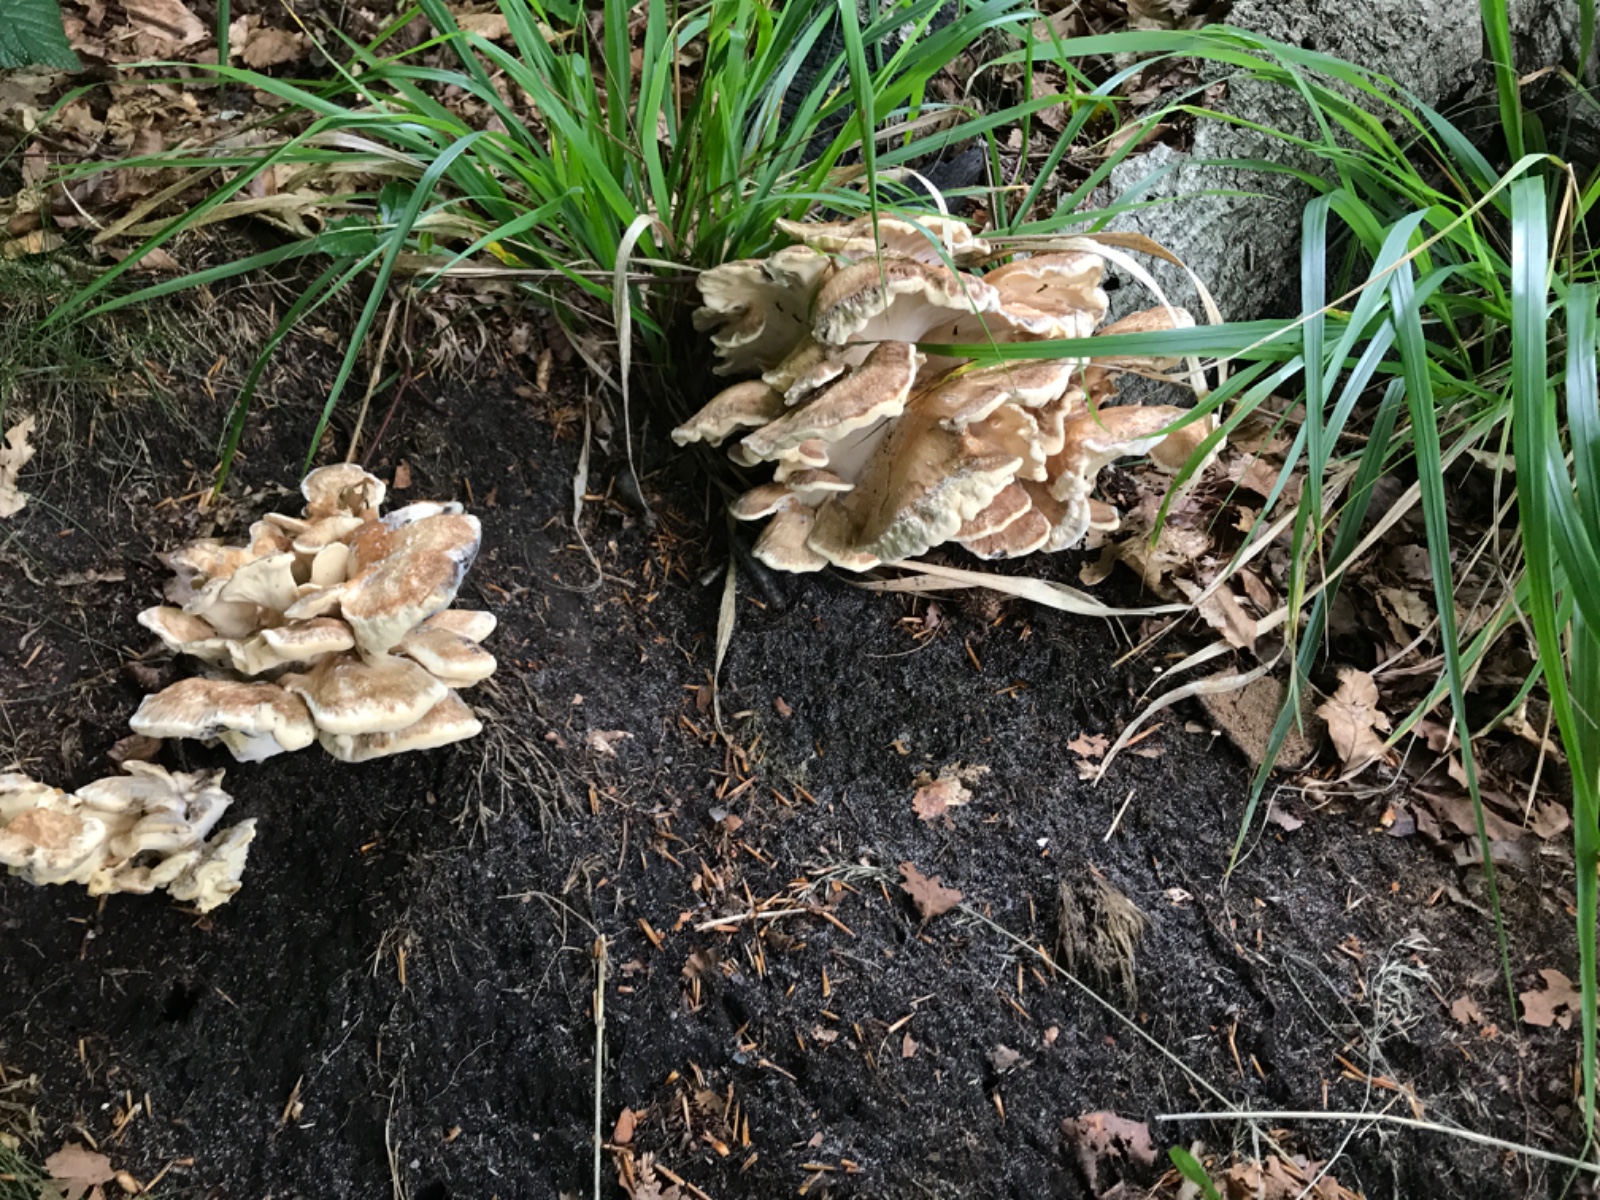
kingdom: Fungi
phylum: Basidiomycota
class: Agaricomycetes
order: Polyporales
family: Meripilaceae
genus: Meripilus
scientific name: Meripilus giganteus
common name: kæmpeporesvamp
